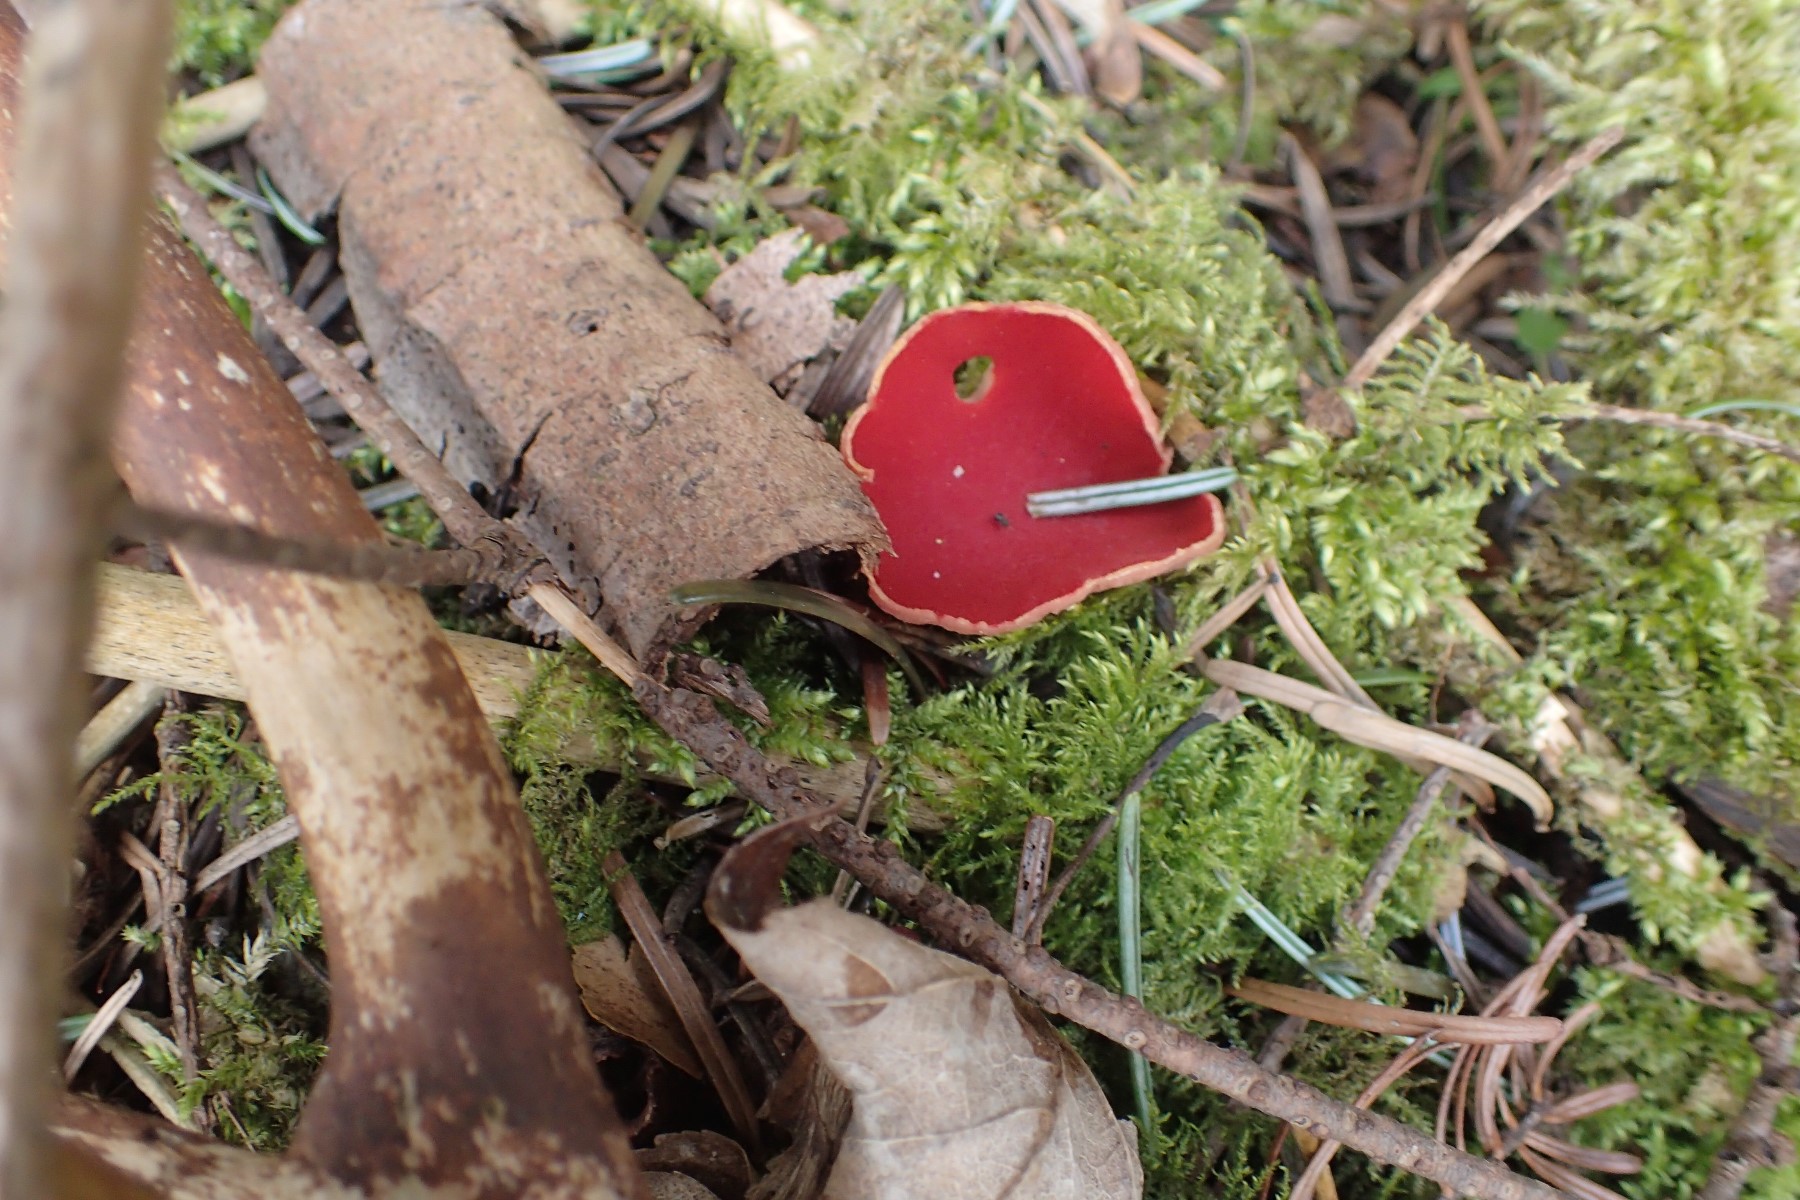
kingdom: Fungi
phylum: Ascomycota
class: Pezizomycetes
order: Pezizales
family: Sarcoscyphaceae
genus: Sarcoscypha
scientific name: Sarcoscypha austriaca
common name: krølhåret pragtbæger
